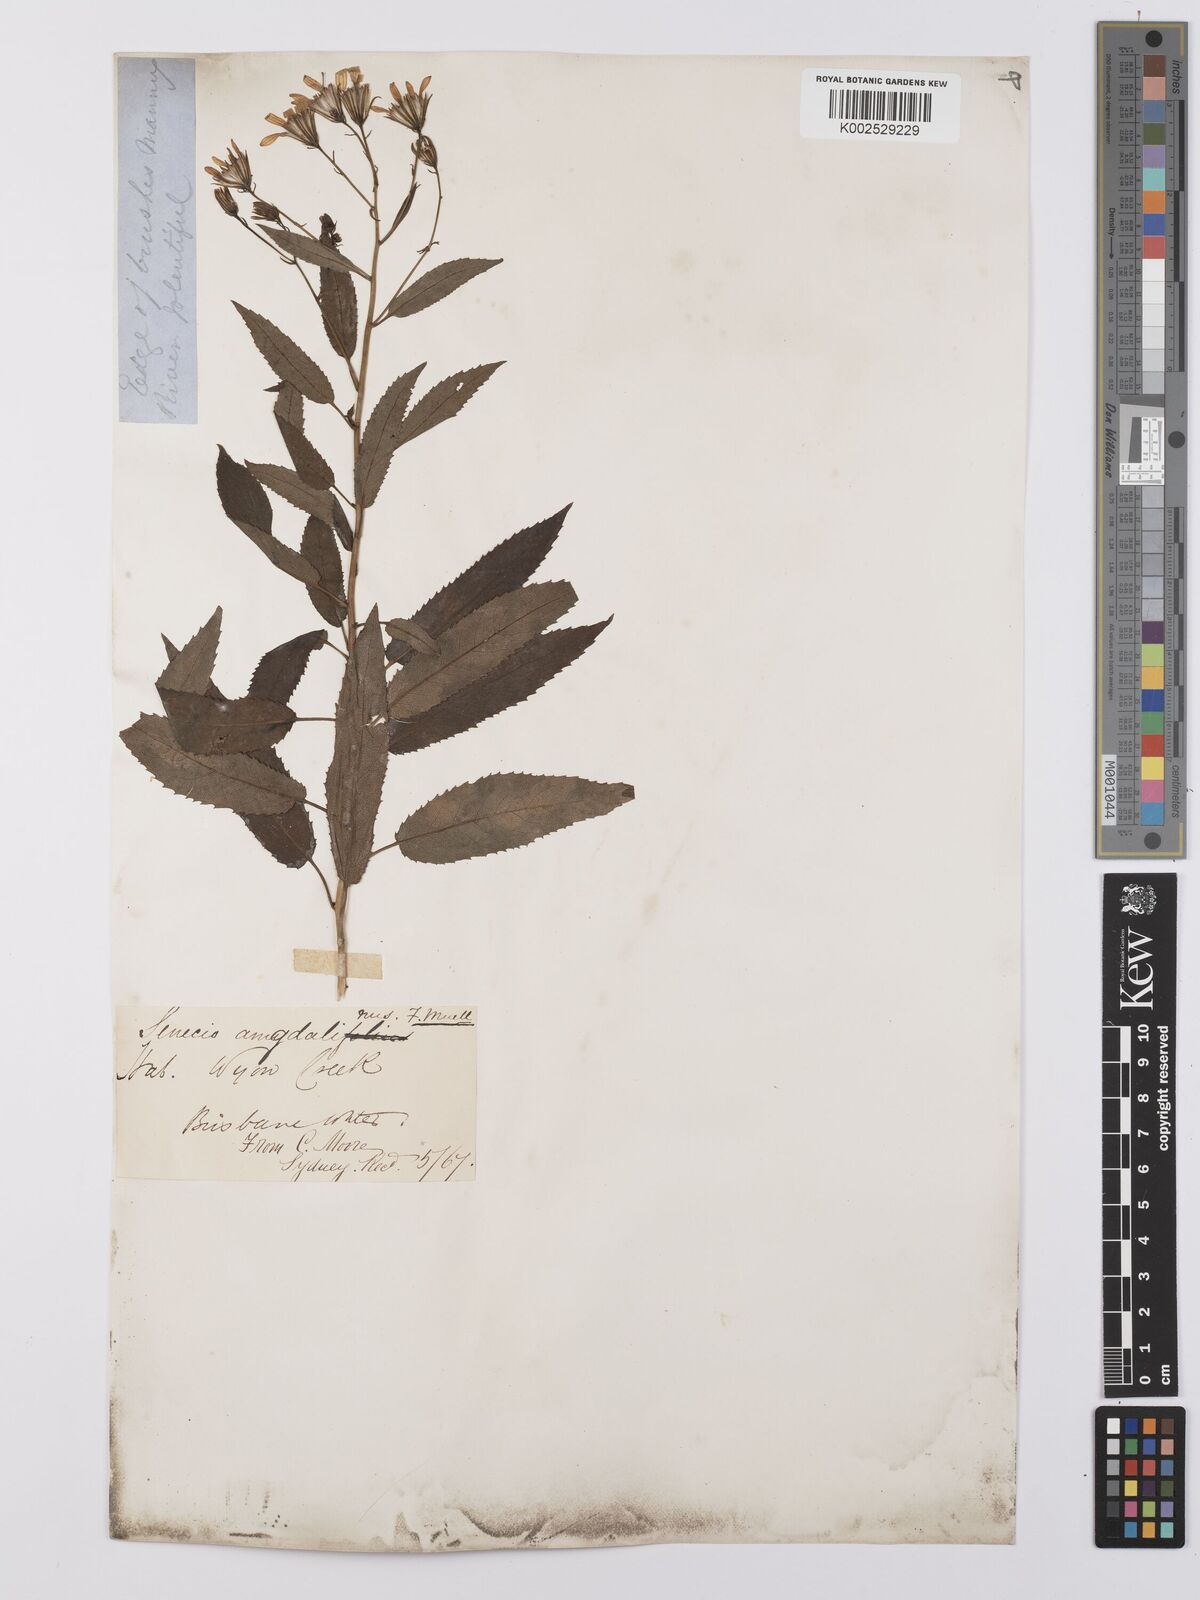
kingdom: Plantae
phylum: Tracheophyta
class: Magnoliopsida
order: Asterales
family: Asteraceae
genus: Lordhowea
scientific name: Lordhowea amygdalifolia
